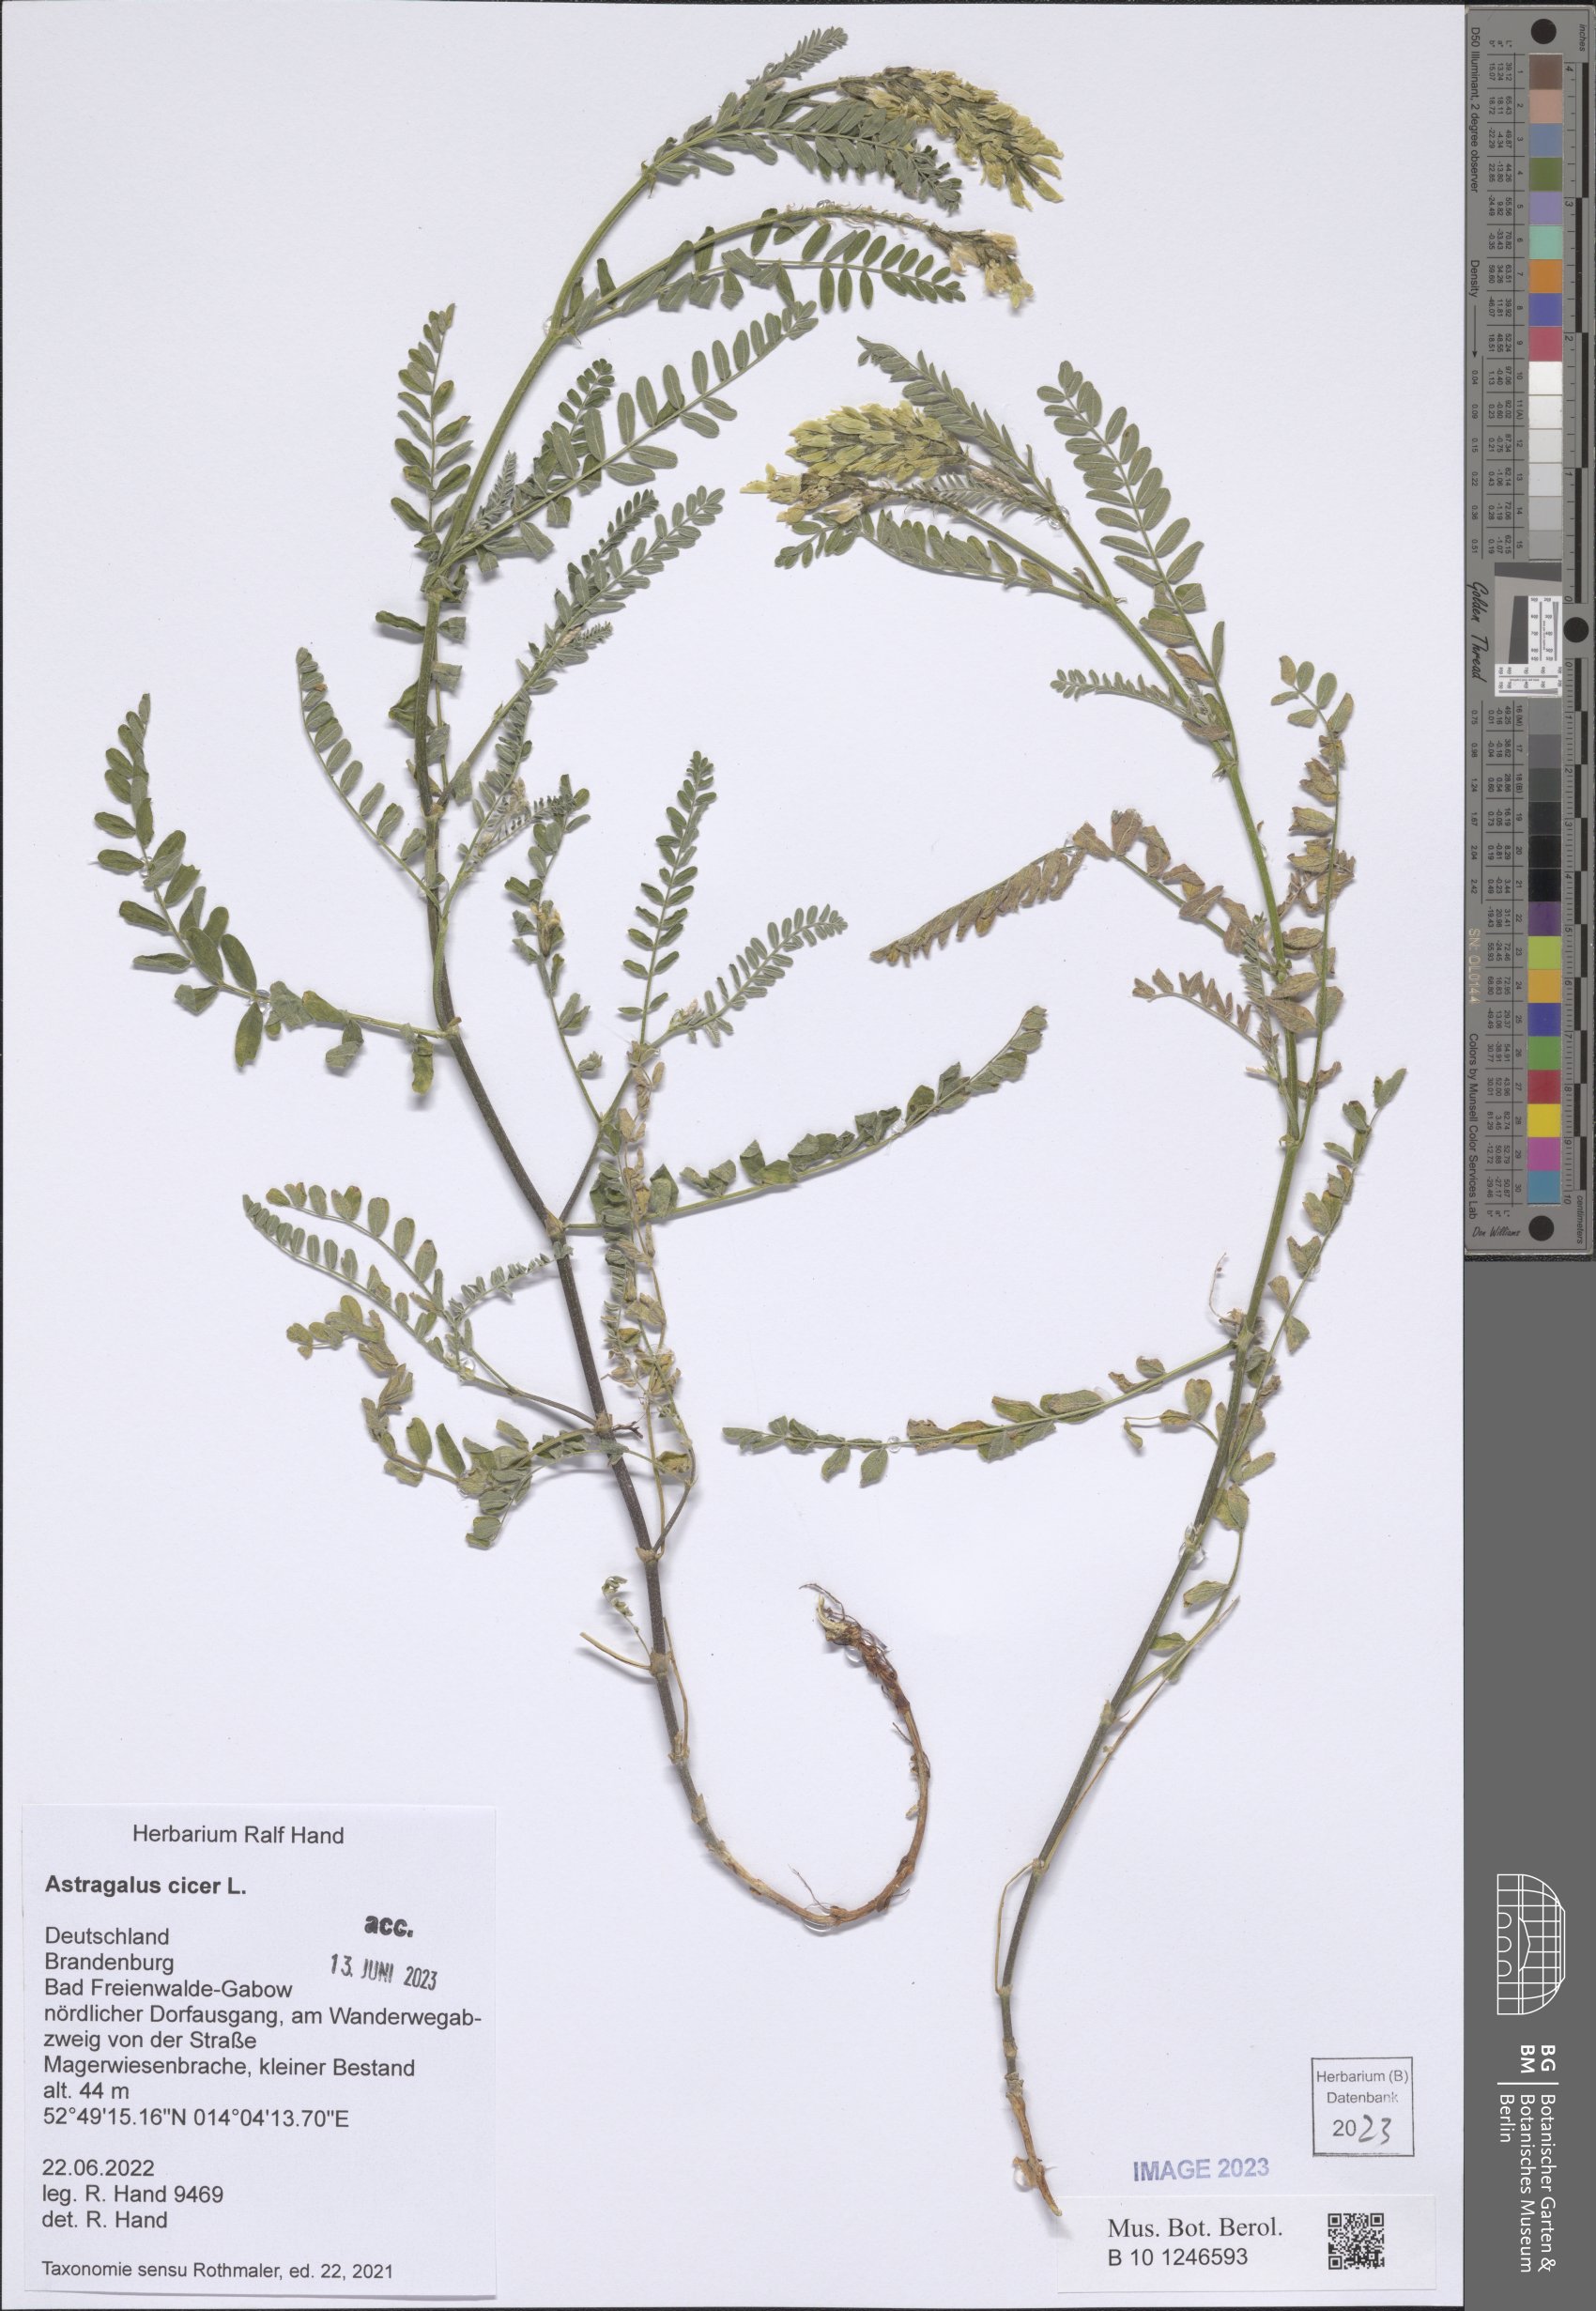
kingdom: Plantae
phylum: Tracheophyta
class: Magnoliopsida
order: Fabales
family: Fabaceae
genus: Astragalus
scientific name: Astragalus cicer
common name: Chick-pea milk-vetch
